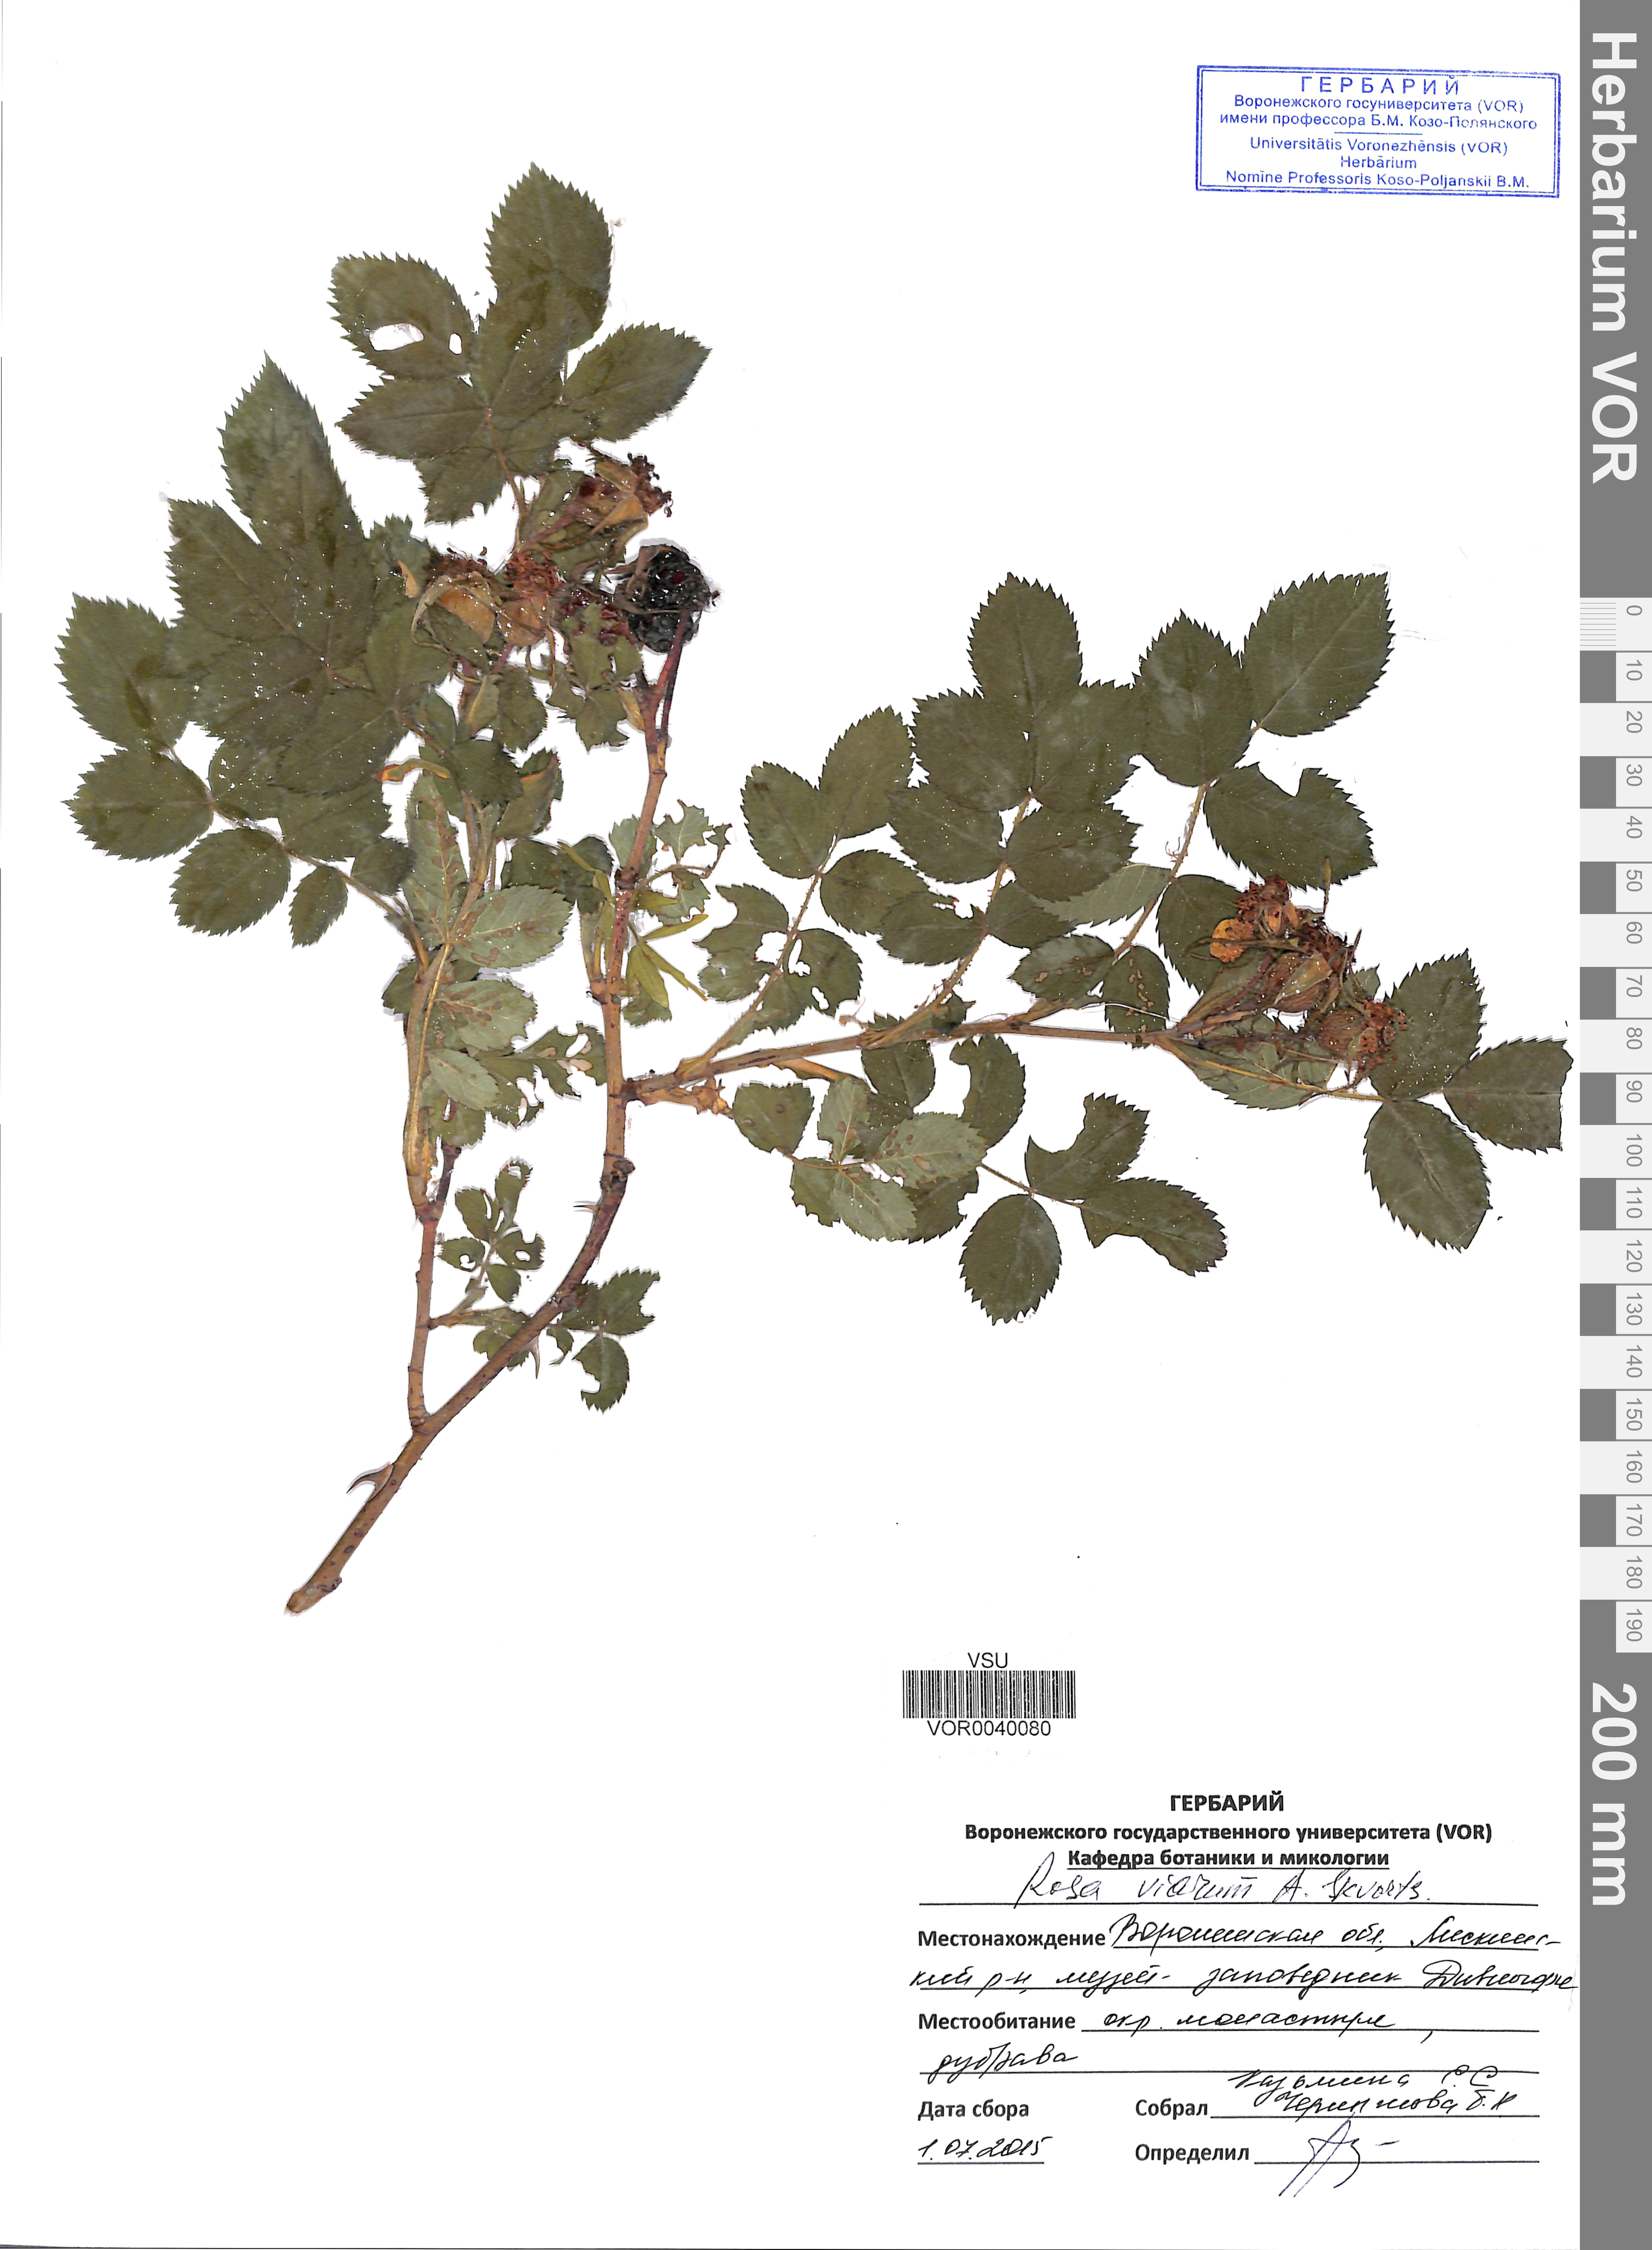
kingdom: Plantae
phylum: Tracheophyta
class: Magnoliopsida
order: Rosales
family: Rosaceae
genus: Rosa
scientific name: Rosa viarum
